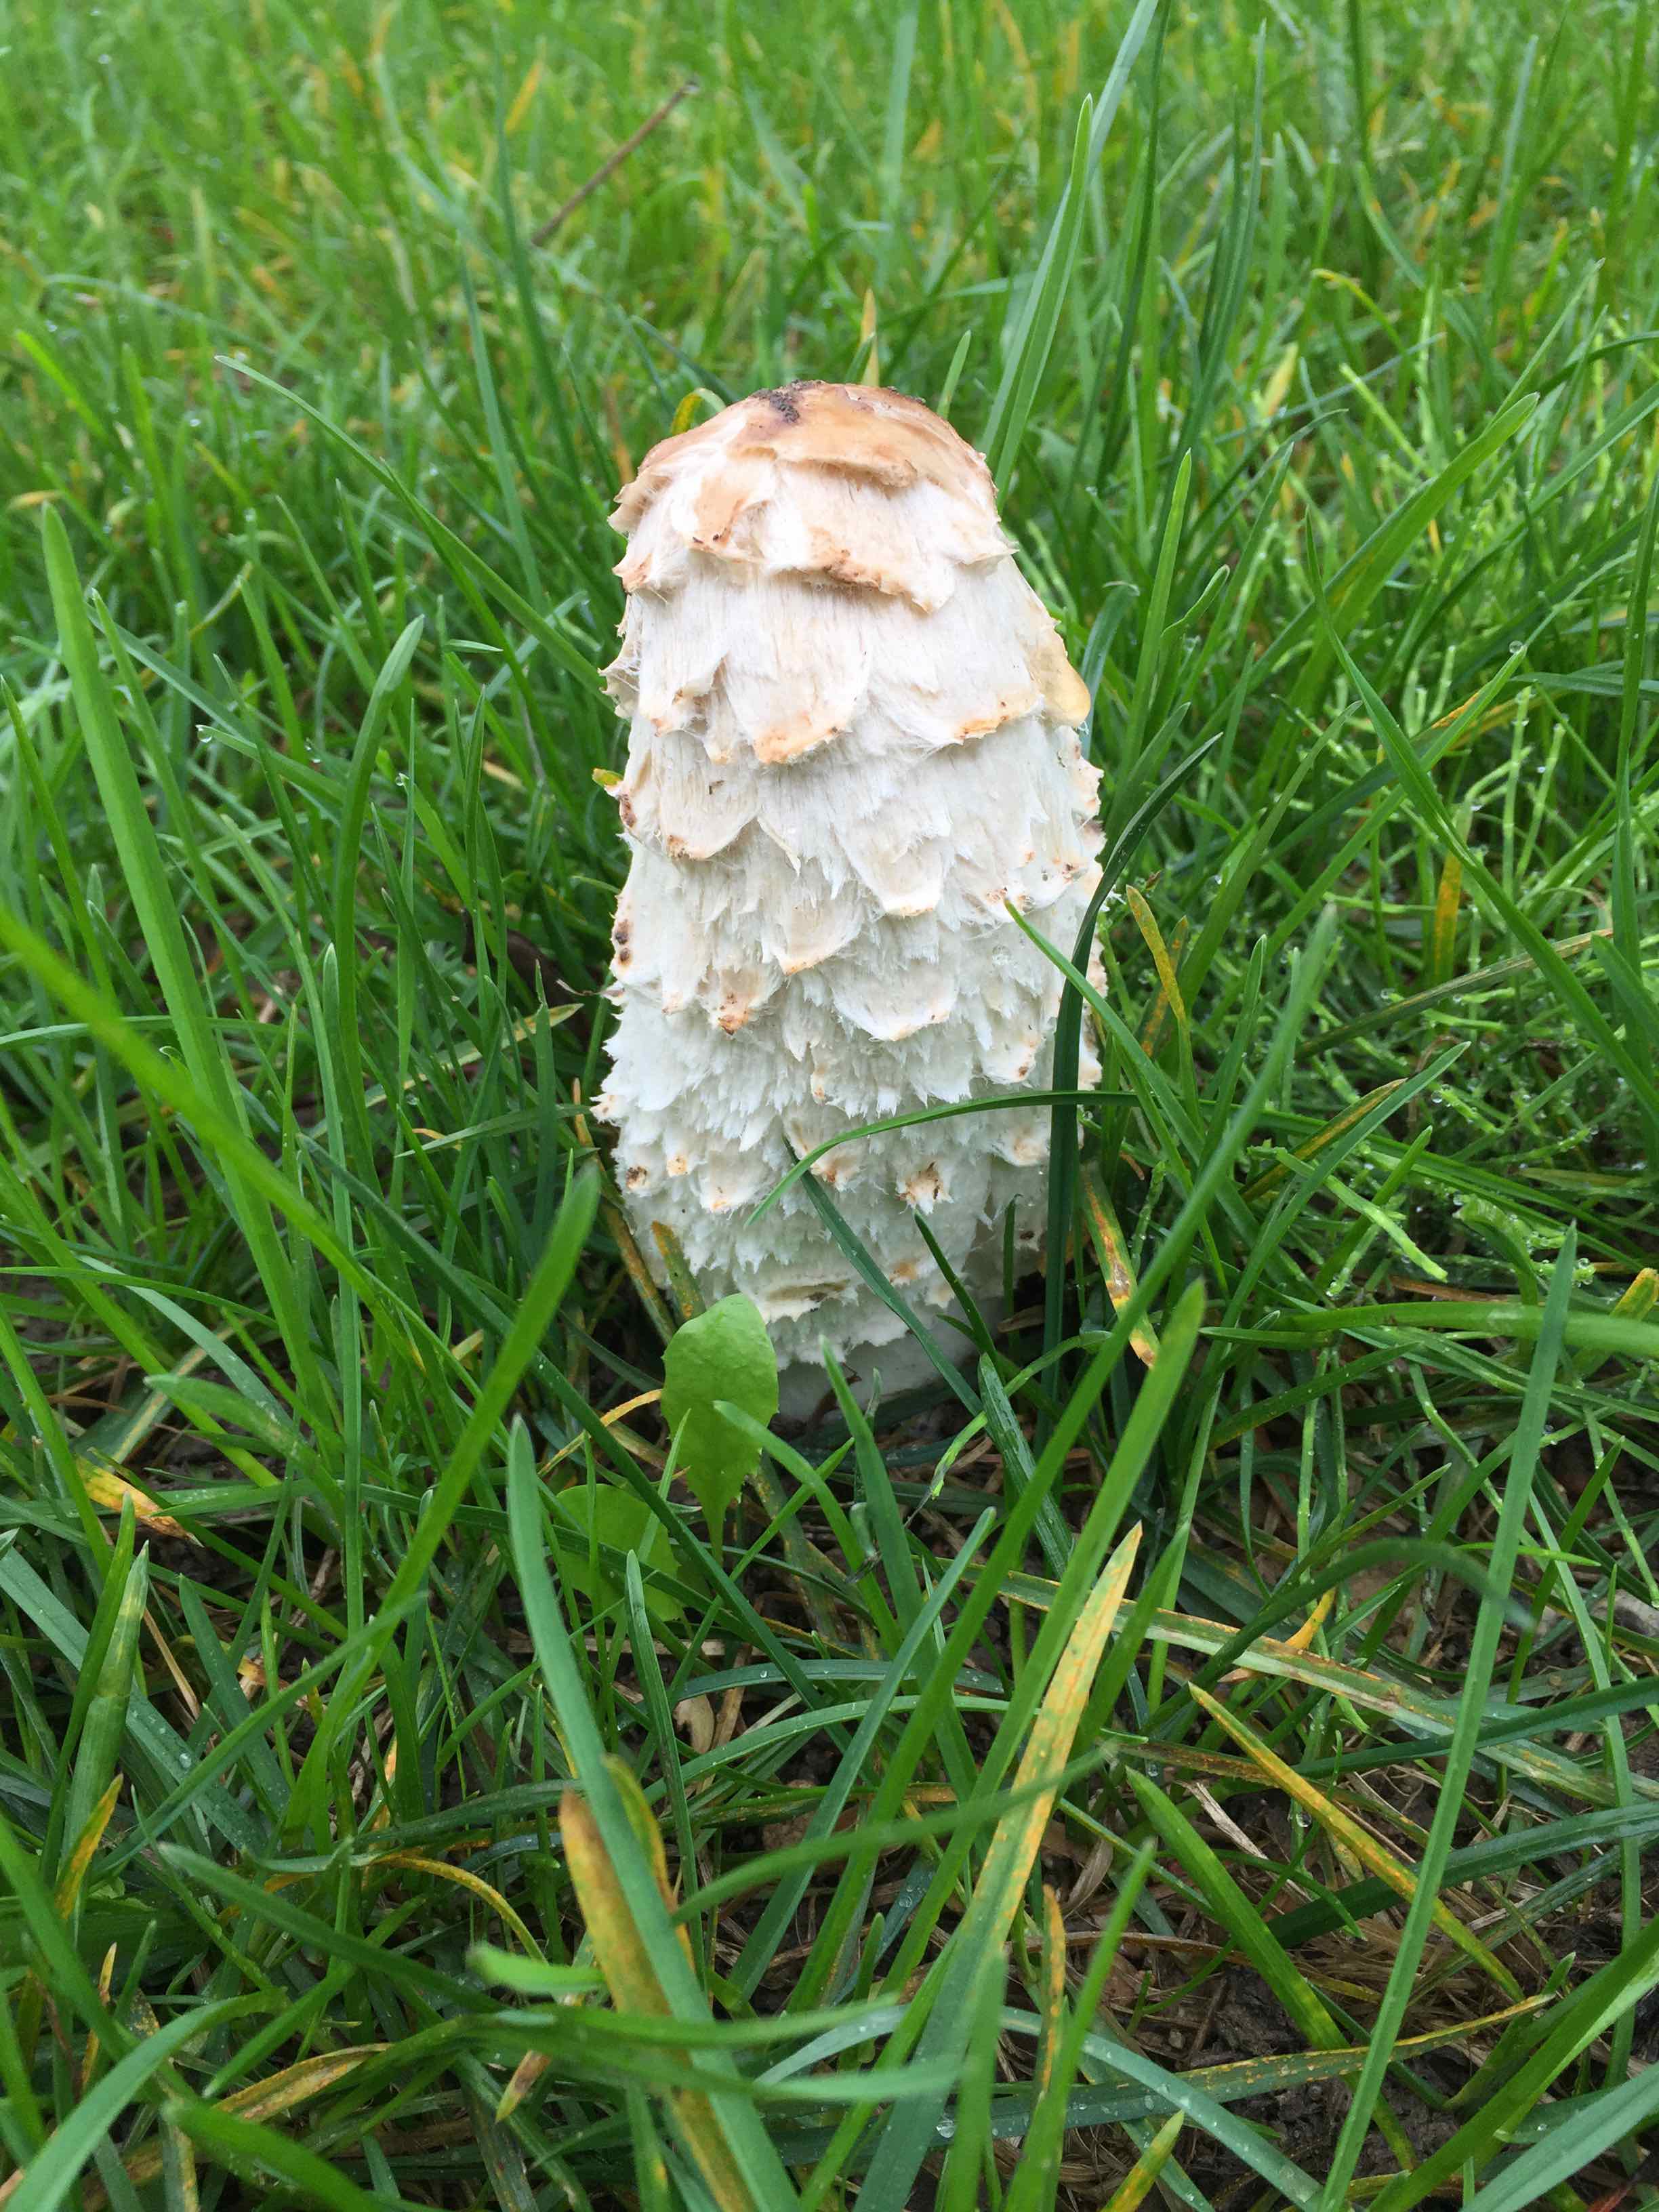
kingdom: Fungi
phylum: Basidiomycota
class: Agaricomycetes
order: Agaricales
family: Agaricaceae
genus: Coprinus
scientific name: Coprinus comatus
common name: stor parykhat
